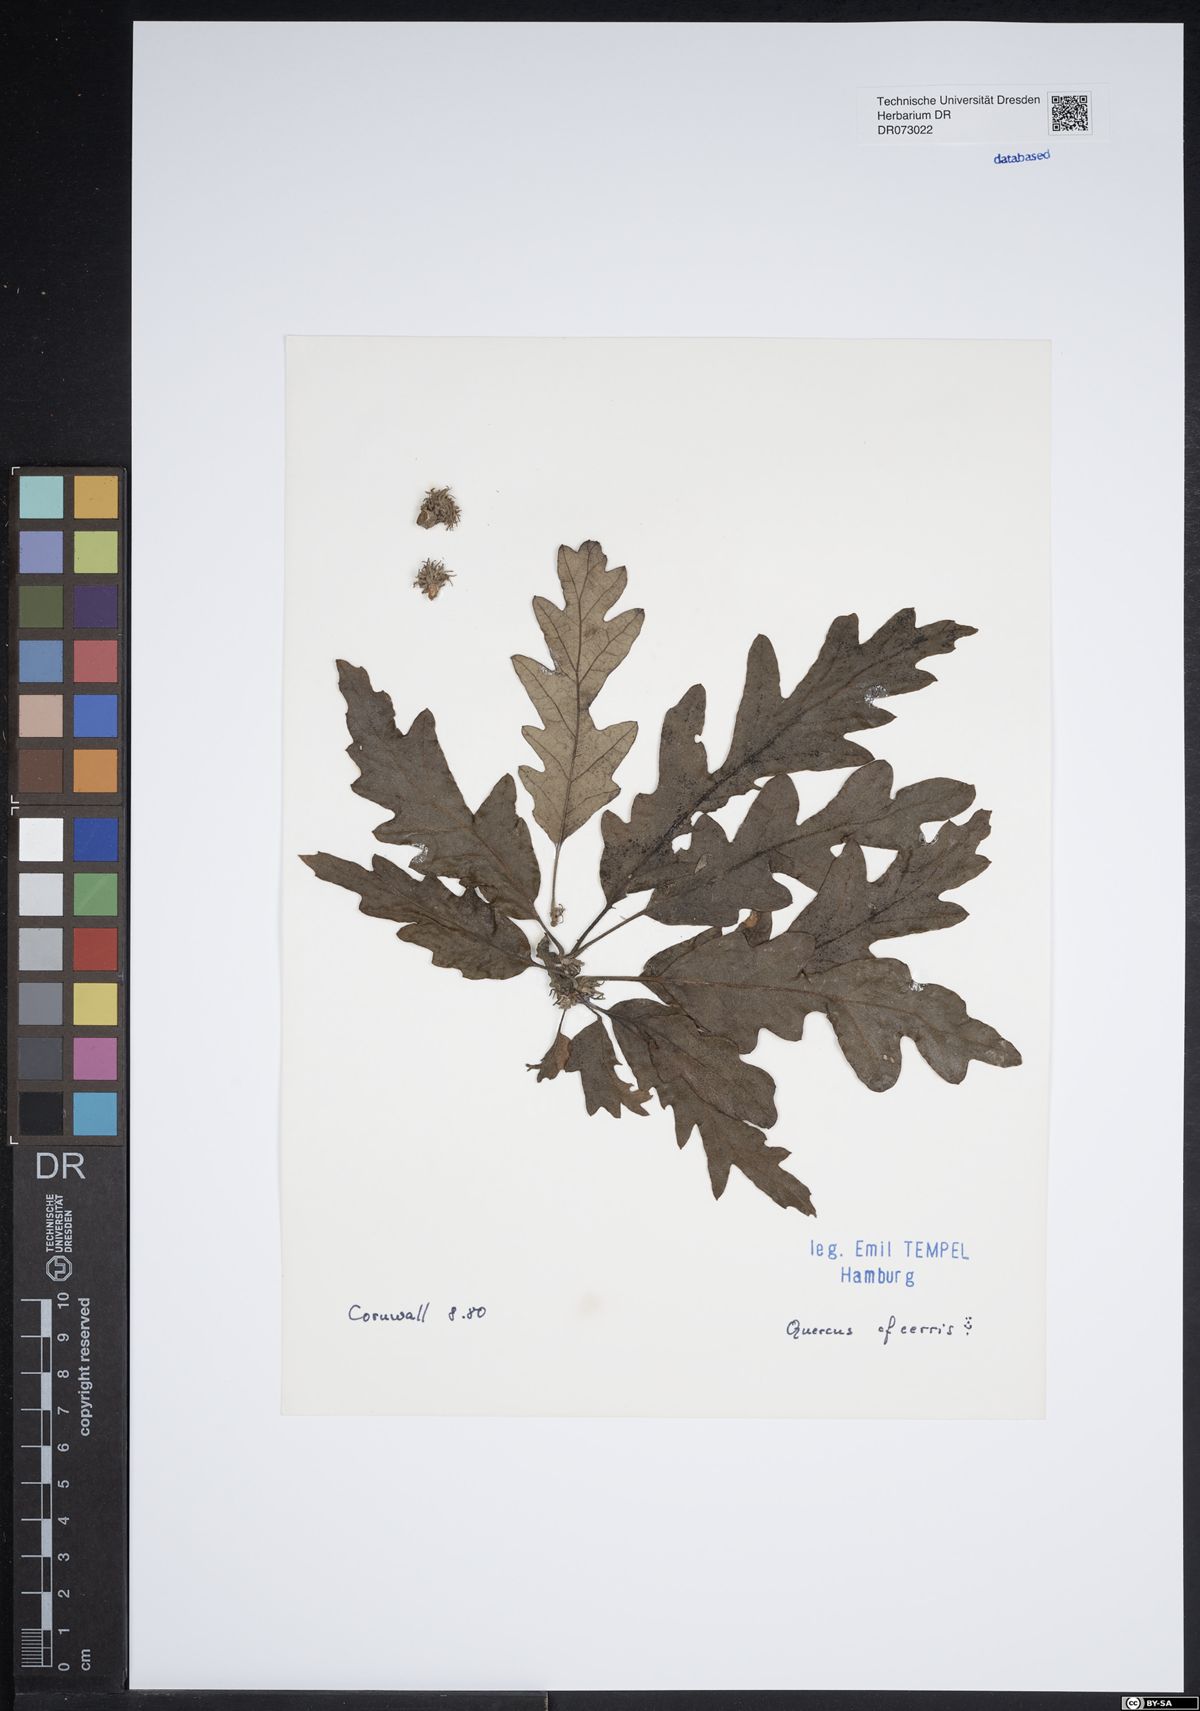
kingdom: Plantae
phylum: Tracheophyta
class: Magnoliopsida
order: Fagales
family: Fagaceae
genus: Quercus
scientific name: Quercus cerris
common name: Turkey oak
